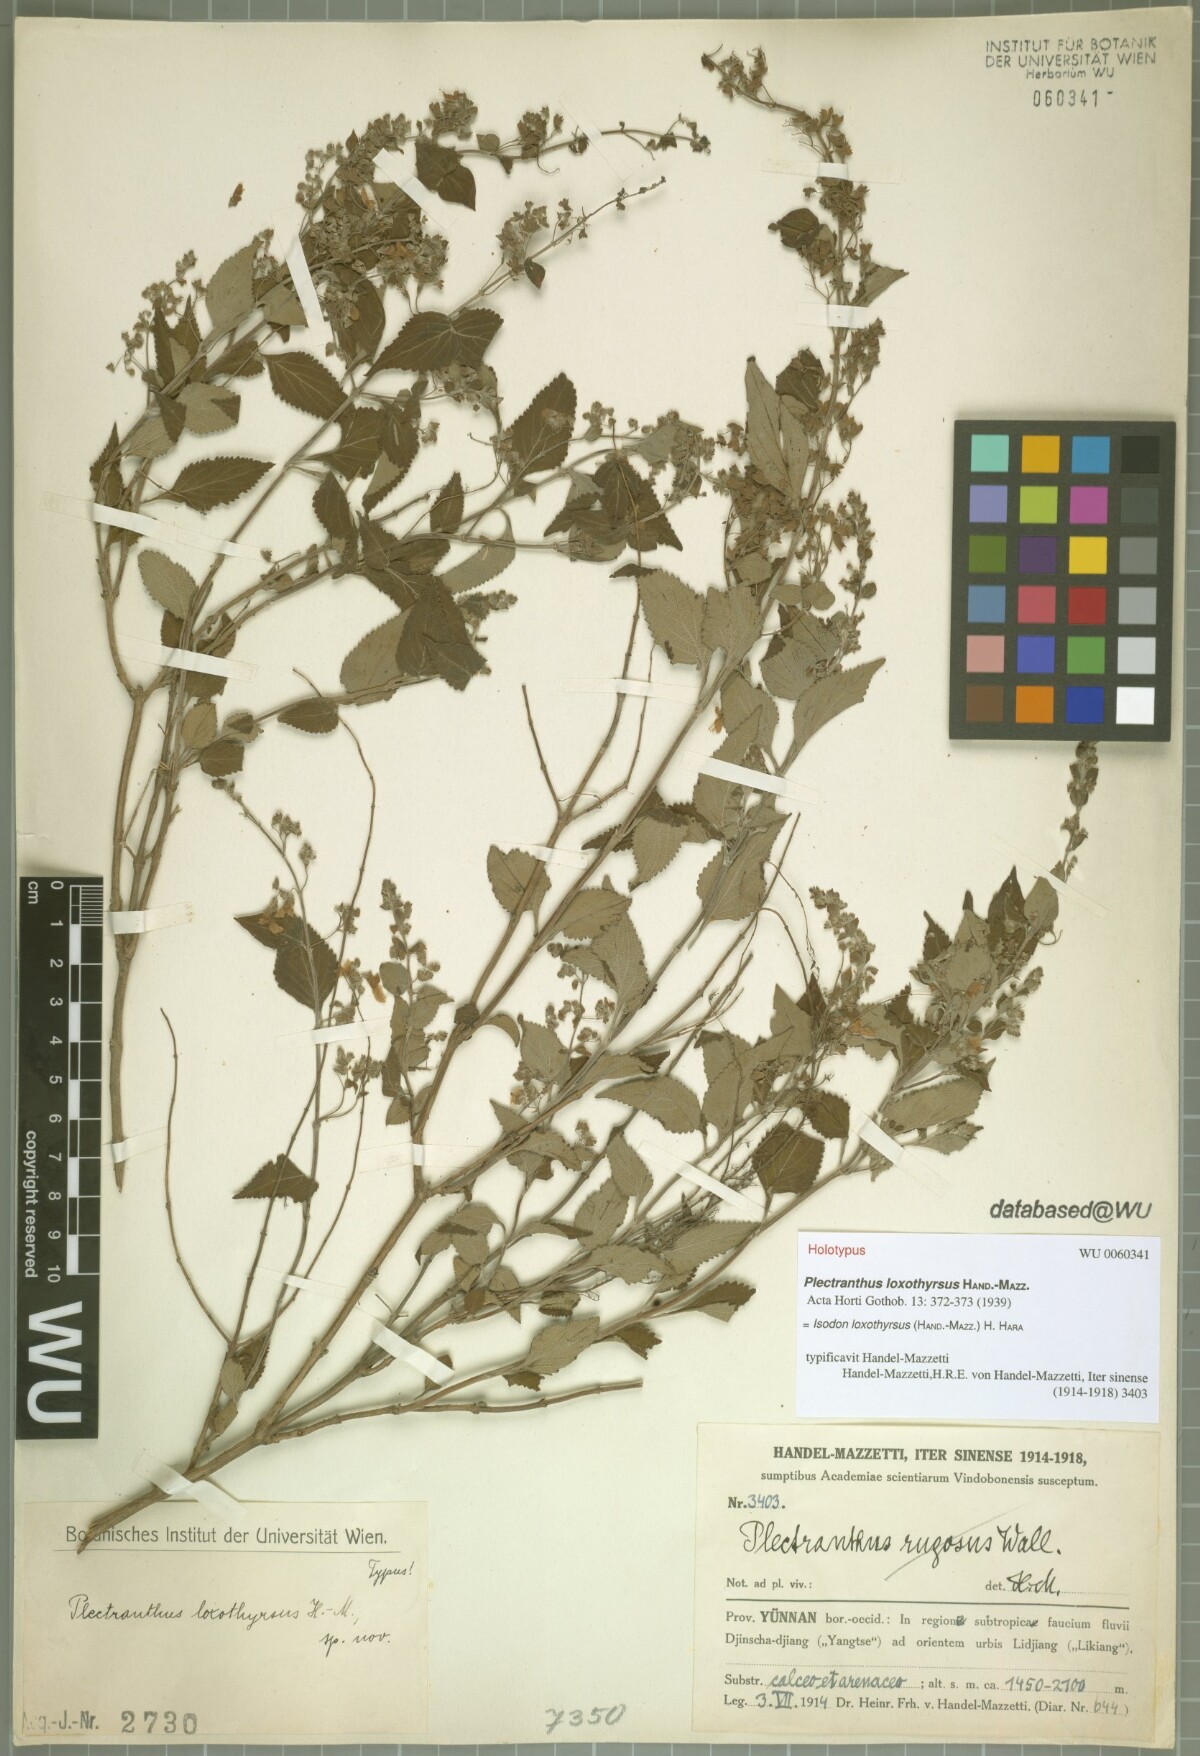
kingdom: Plantae
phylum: Tracheophyta
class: Magnoliopsida
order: Lamiales
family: Lamiaceae
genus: Isodon
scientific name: Isodon loxothyrsus
